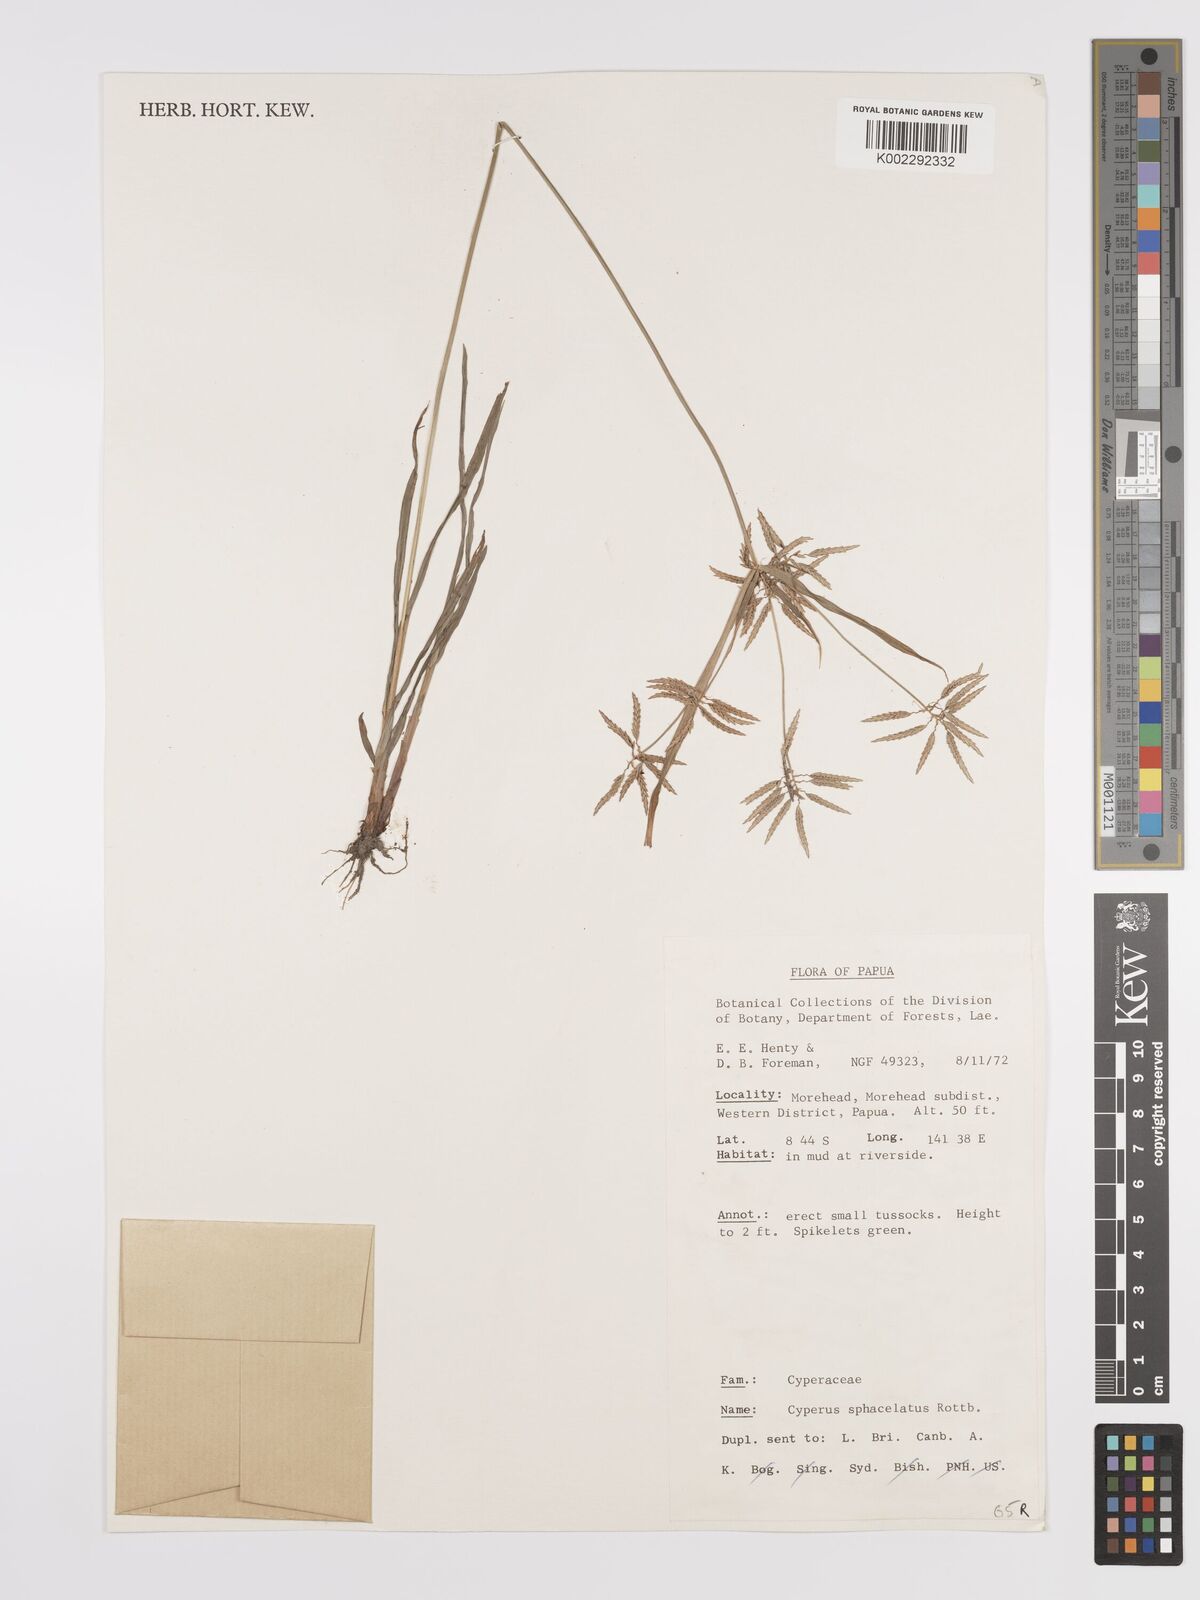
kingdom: Plantae
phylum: Tracheophyta
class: Liliopsida
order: Poales
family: Cyperaceae
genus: Cyperus
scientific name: Cyperus sphacelatus
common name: Roadside flatsedge
